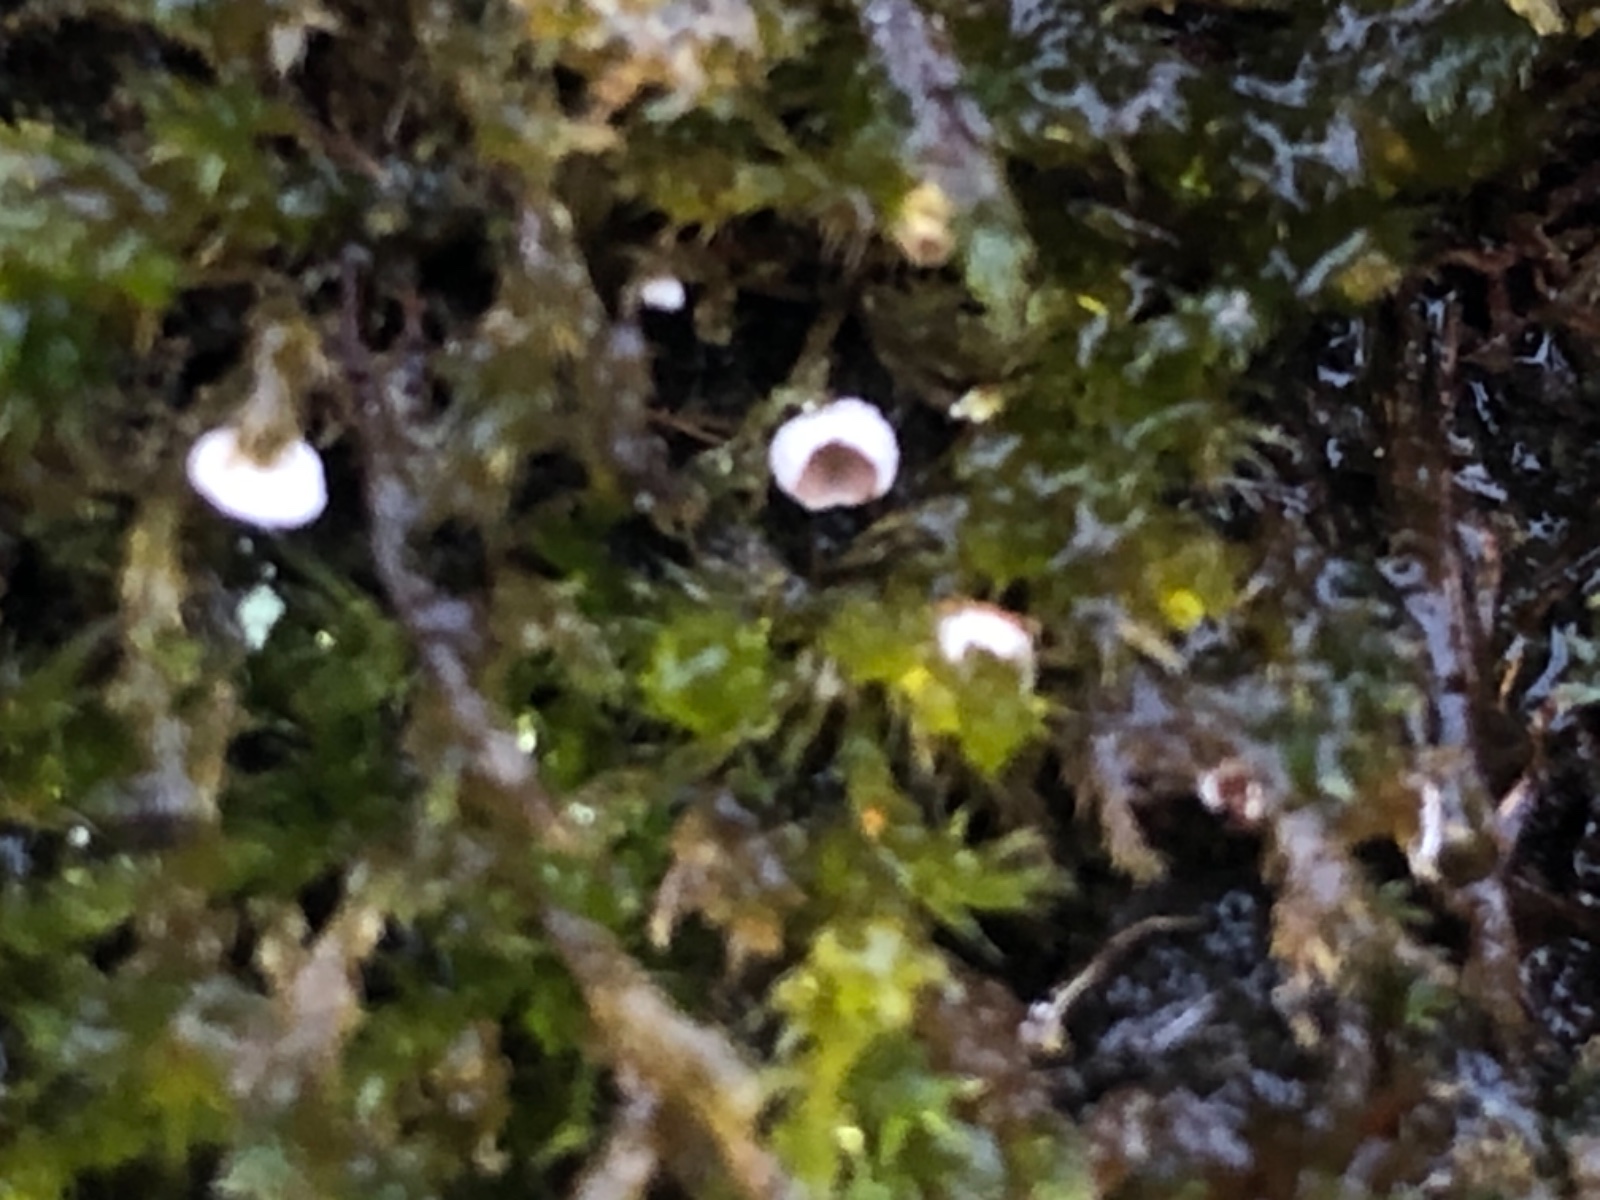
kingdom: Fungi
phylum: Basidiomycota
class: Agaricomycetes
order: Agaricales
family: Chromocyphellaceae
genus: Chromocyphella
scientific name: Chromocyphella muscicola
